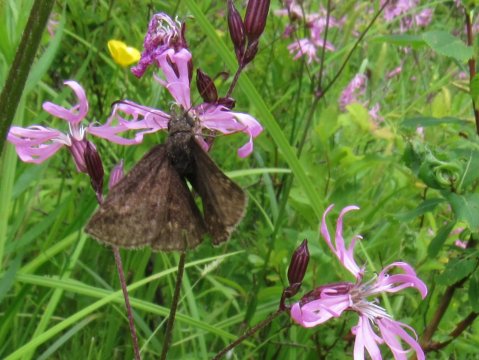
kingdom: Animalia
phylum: Arthropoda
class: Insecta
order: Lepidoptera
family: Hesperiidae
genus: Erynnis
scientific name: Erynnis
